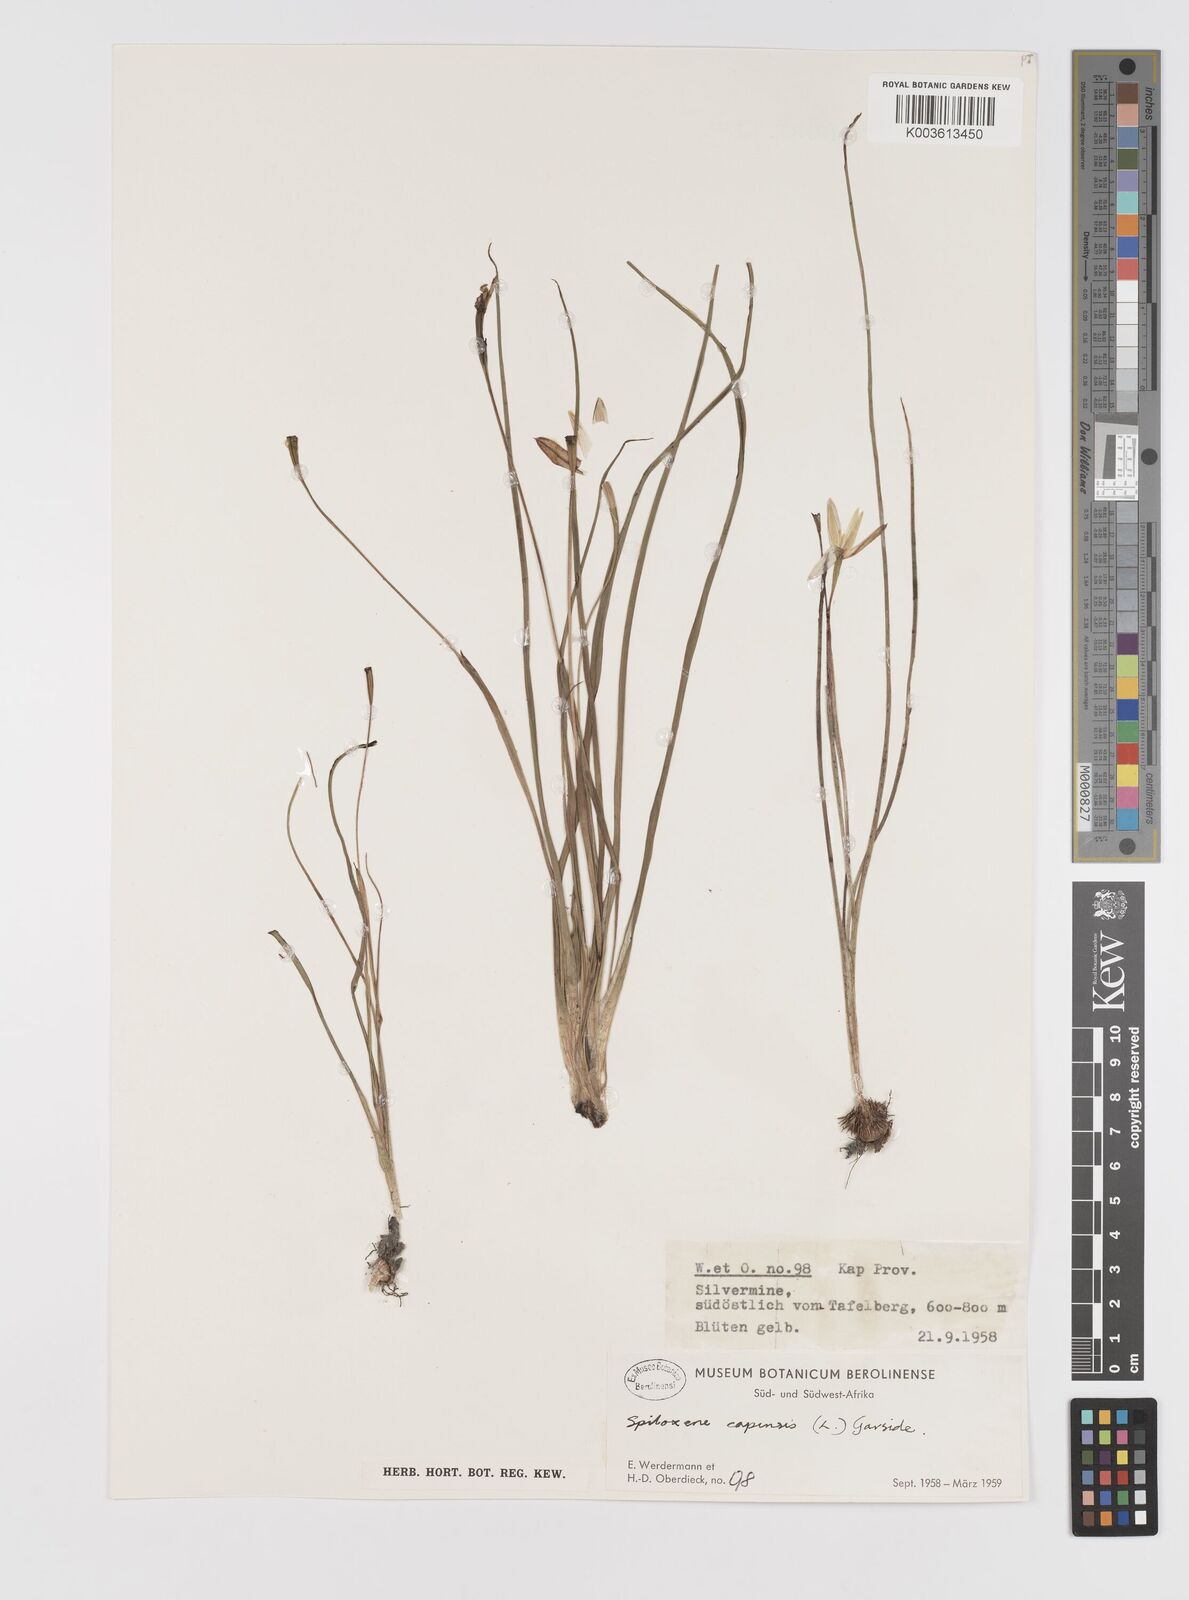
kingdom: Plantae
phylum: Tracheophyta
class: Liliopsida
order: Asparagales
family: Hypoxidaceae
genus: Pauridia
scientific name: Pauridia capensis
